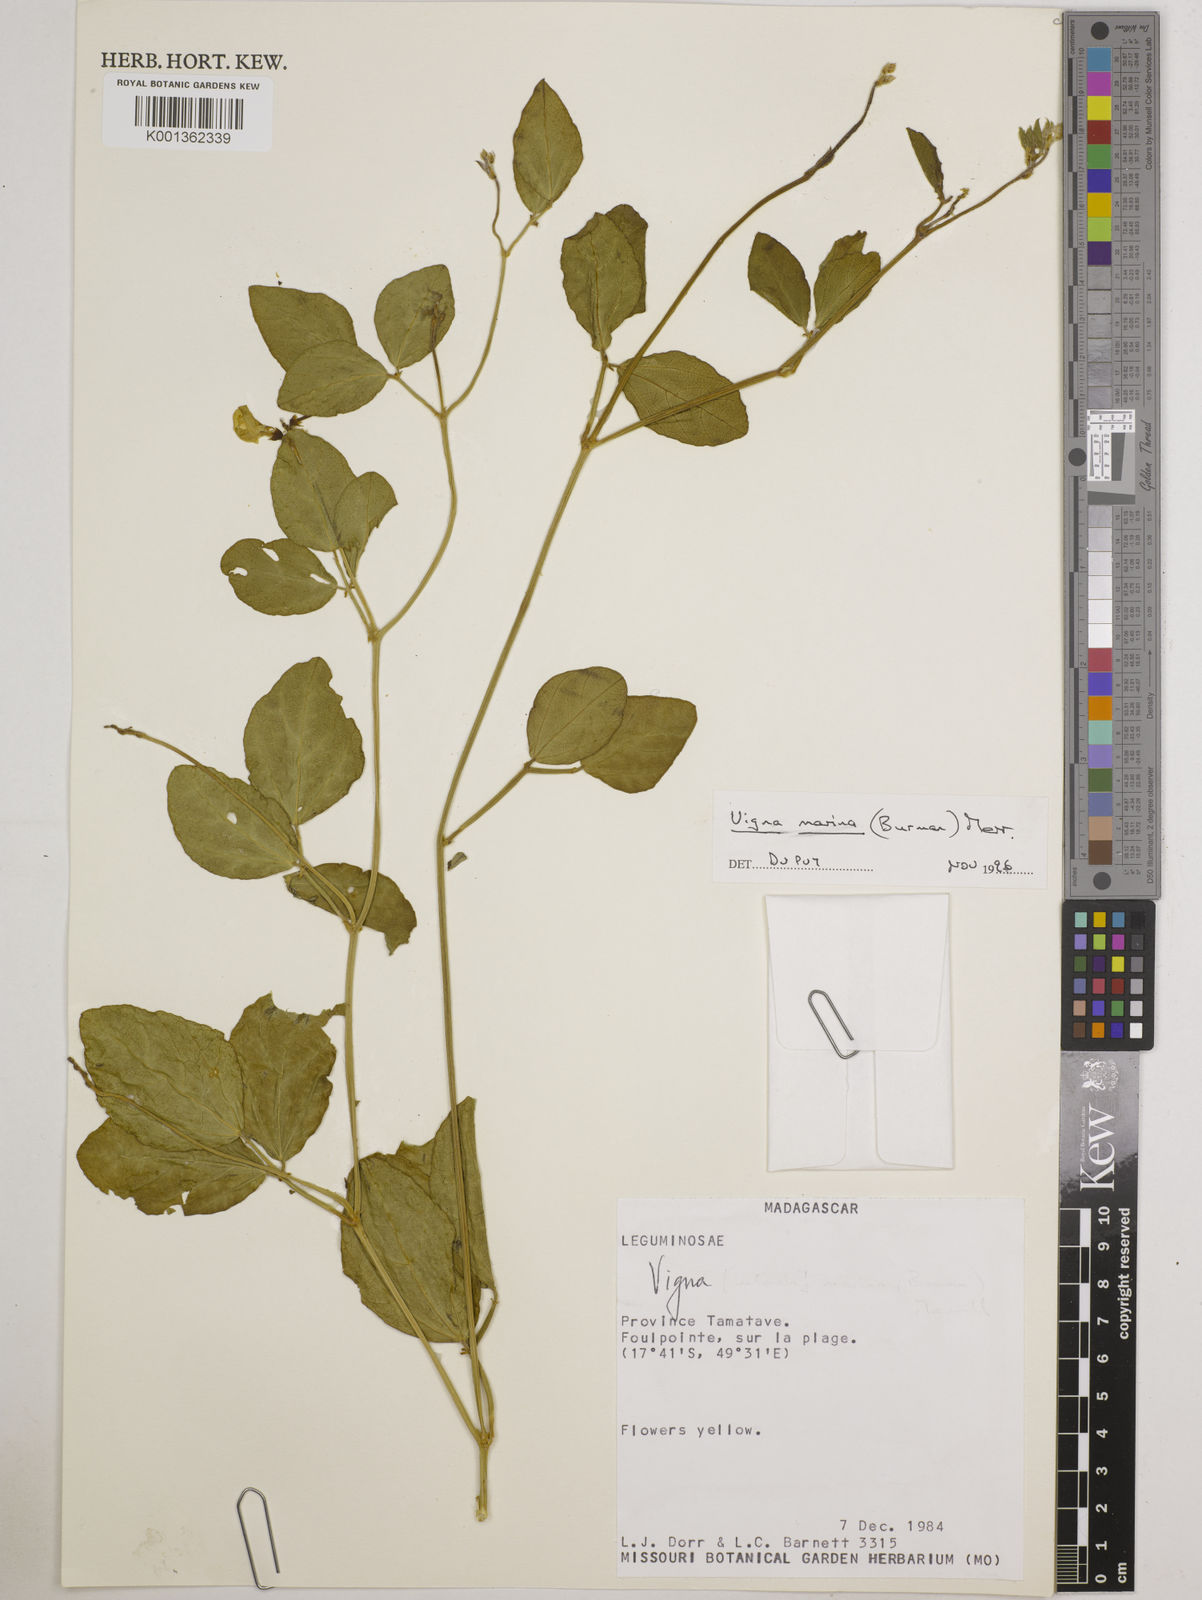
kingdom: Plantae
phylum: Tracheophyta
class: Magnoliopsida
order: Fabales
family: Fabaceae
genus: Vigna
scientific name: Vigna marina
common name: Dune-bean
